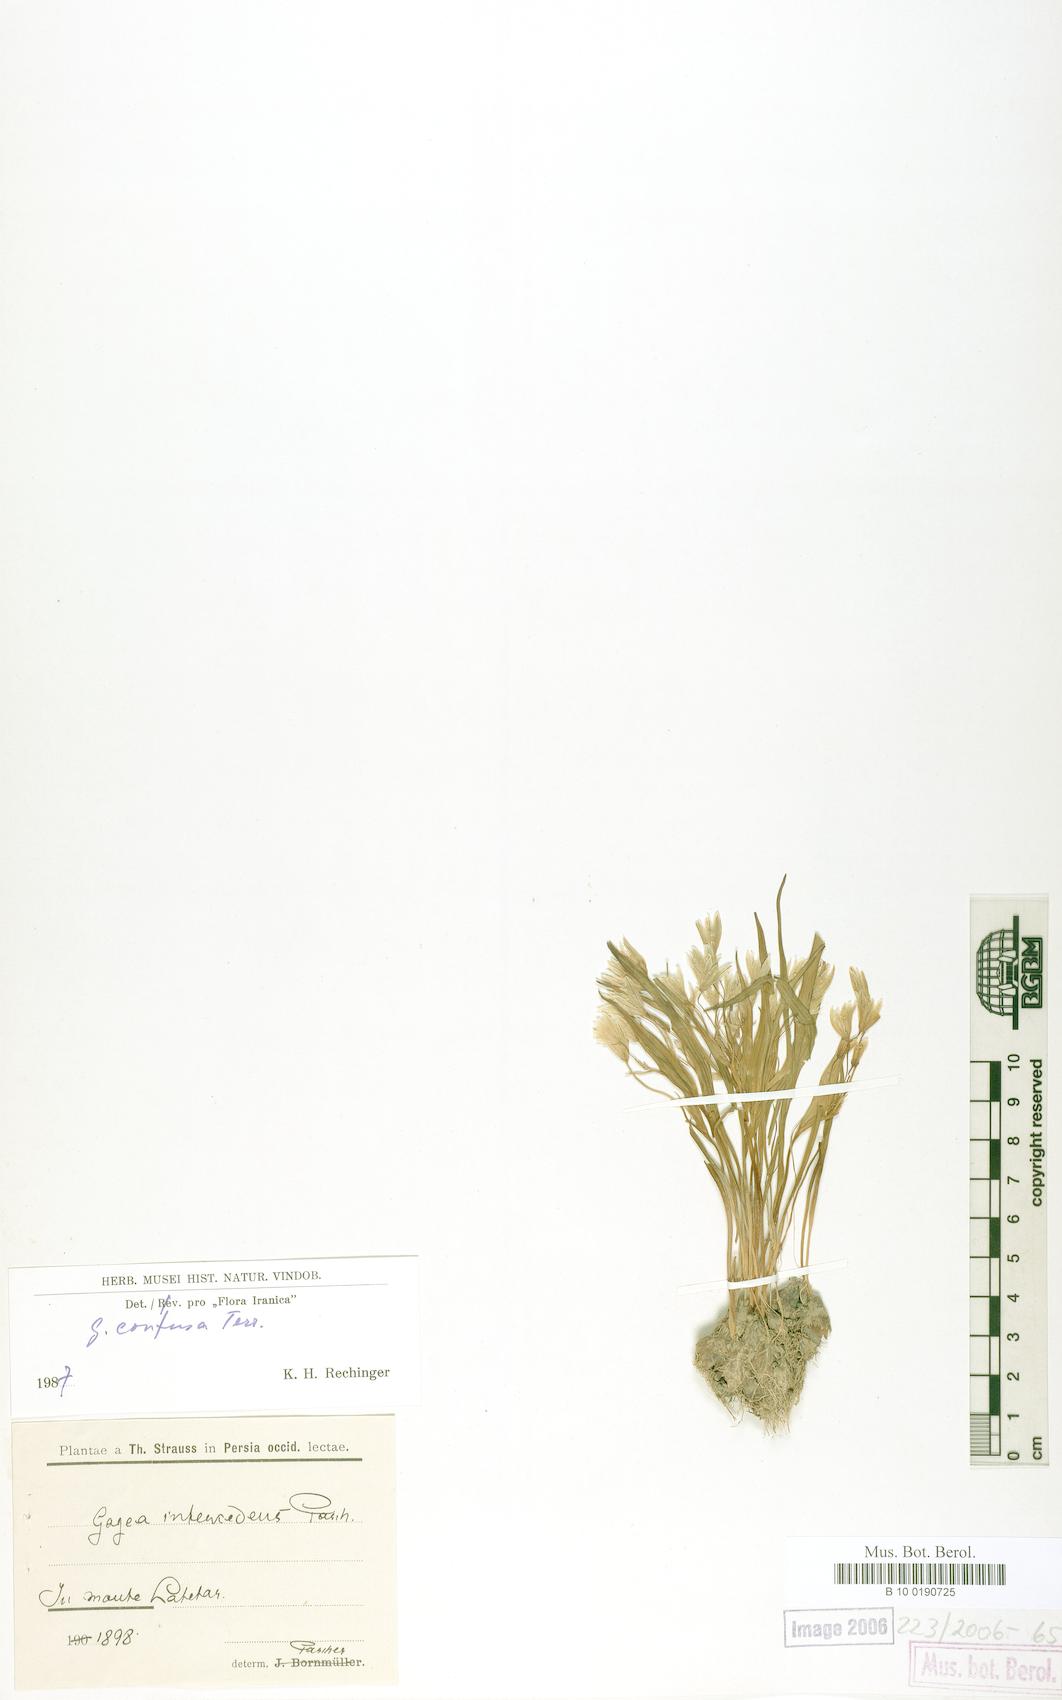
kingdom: Plantae
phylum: Tracheophyta
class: Liliopsida
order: Liliales
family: Liliaceae
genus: Gagea
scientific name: Gagea confusa
